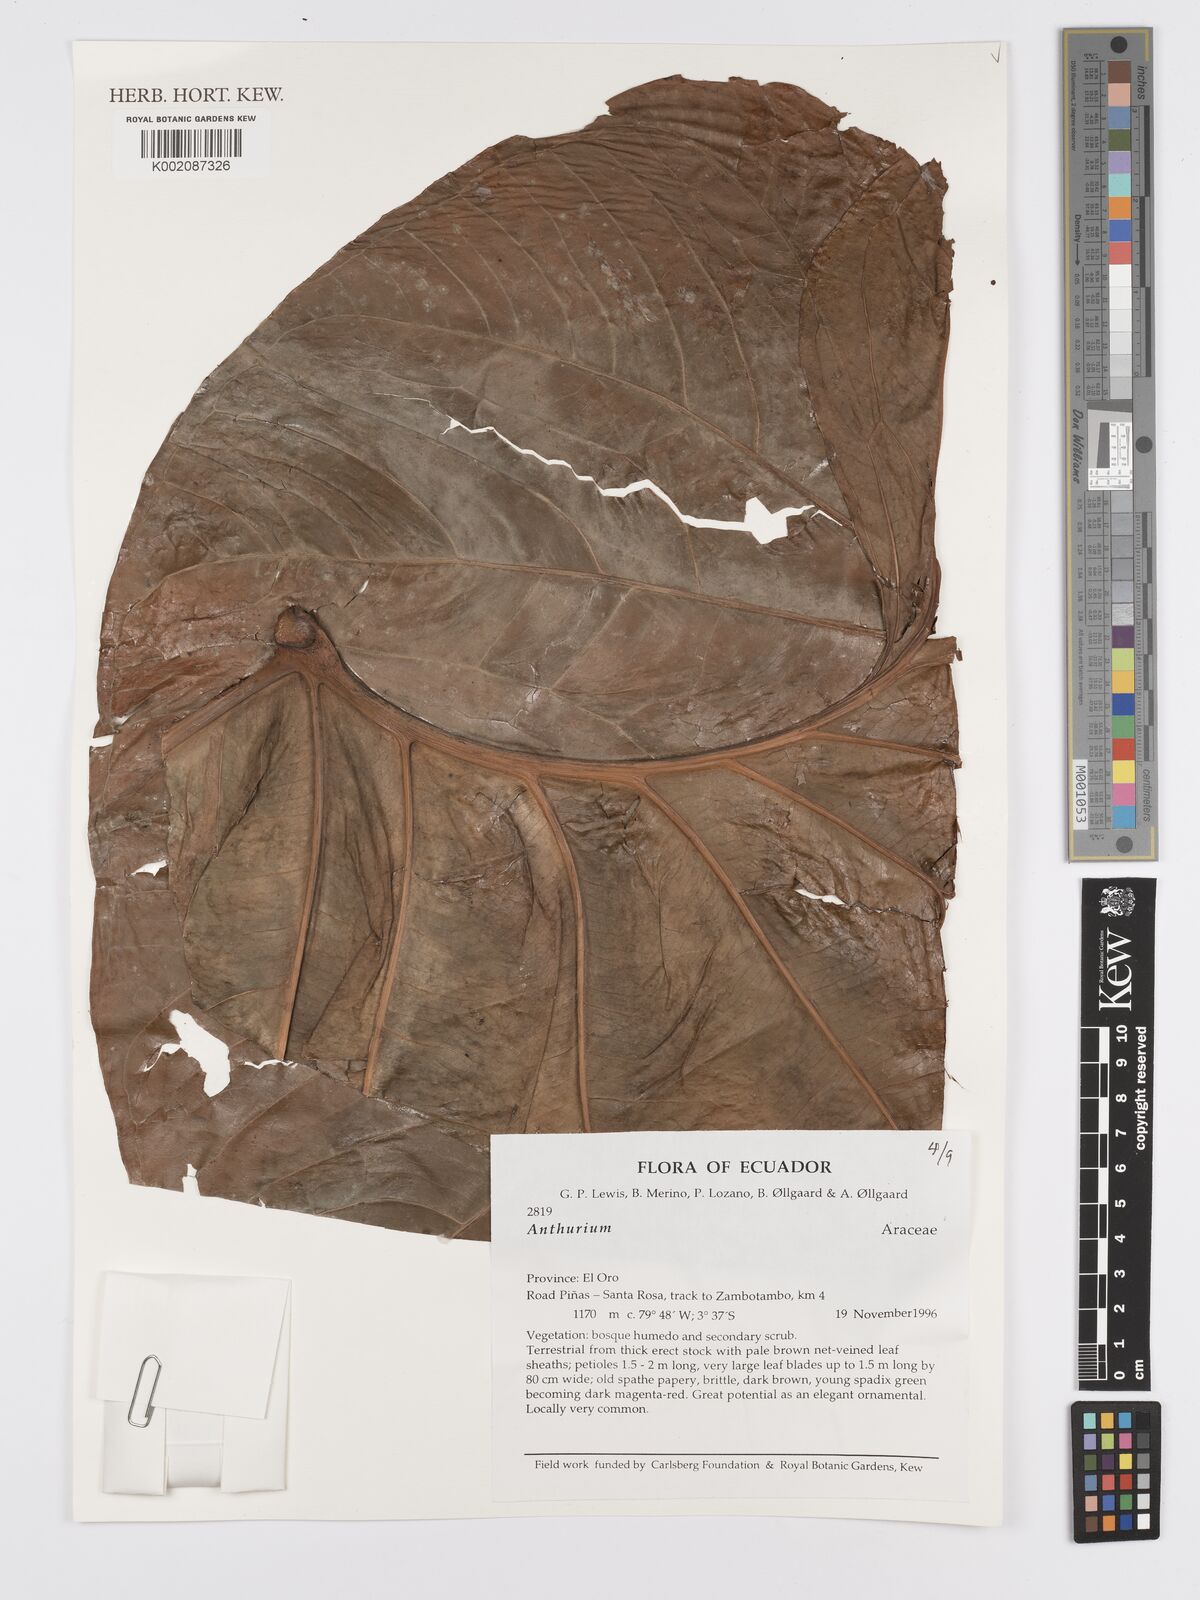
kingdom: Plantae
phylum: Tracheophyta
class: Liliopsida
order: Alismatales
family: Araceae
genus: Anthurium
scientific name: Anthurium
